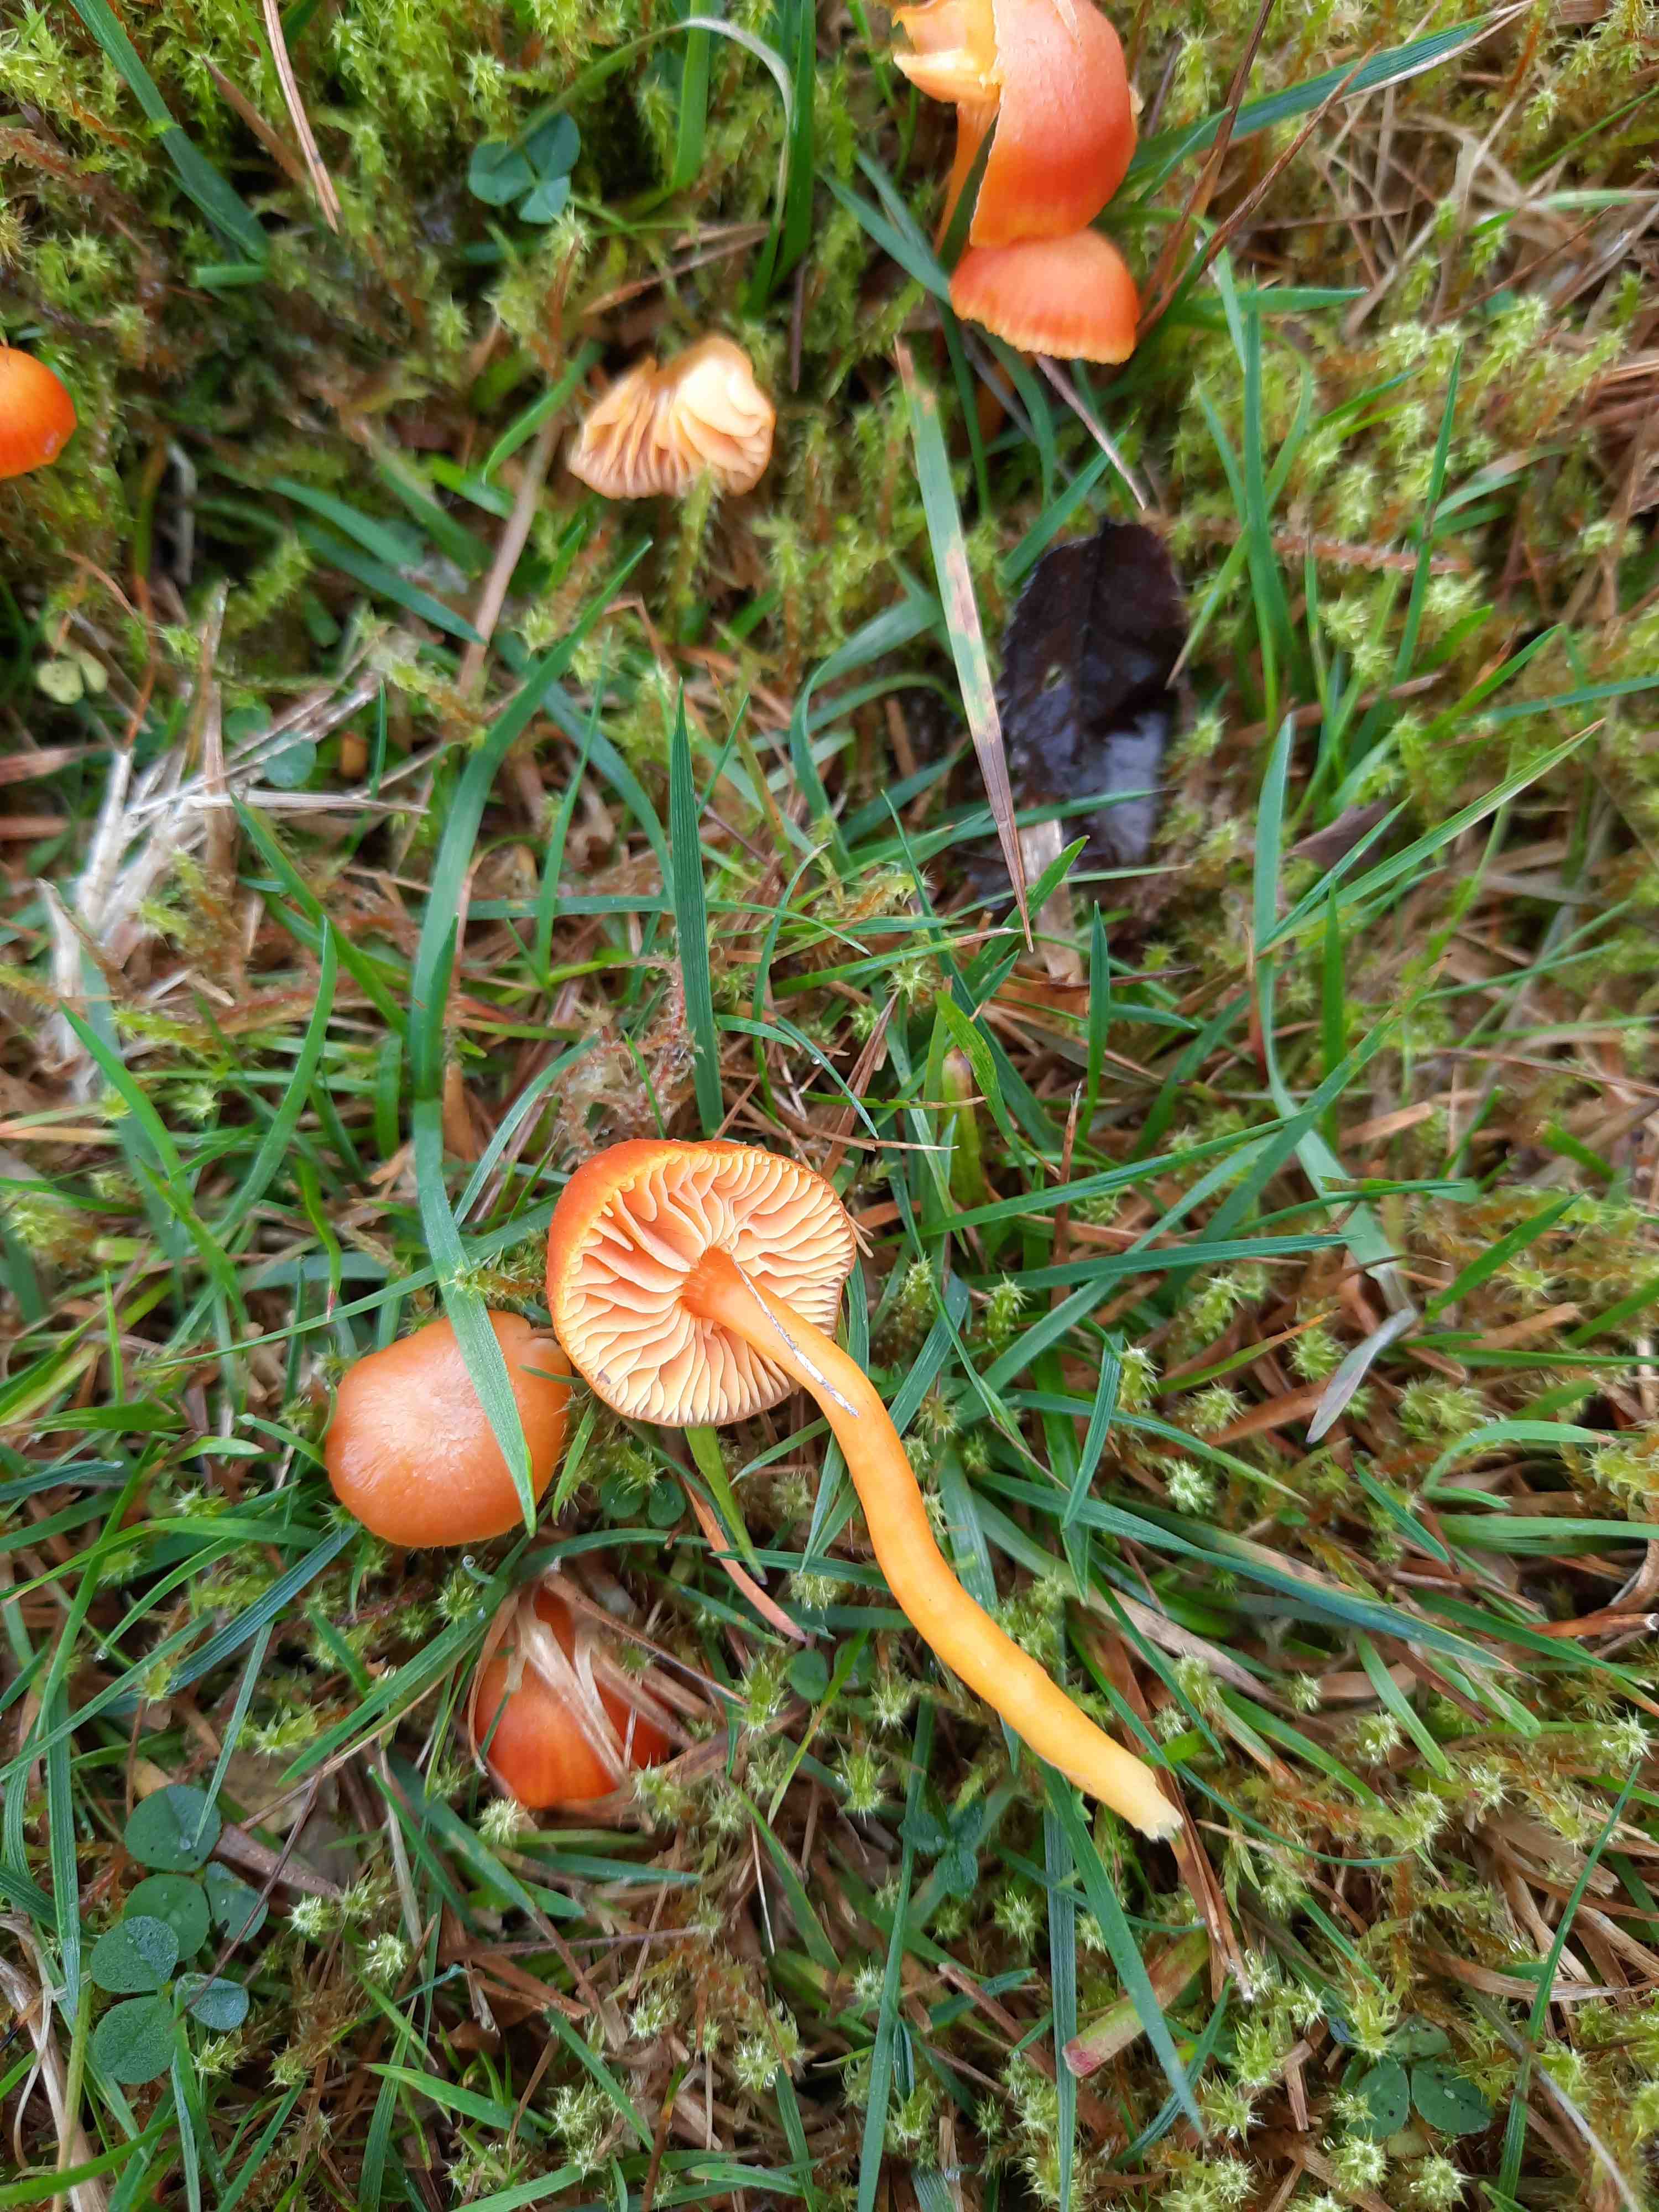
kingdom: Fungi
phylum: Basidiomycota
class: Agaricomycetes
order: Agaricales
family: Hygrophoraceae
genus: Hygrocybe
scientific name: Hygrocybe miniata
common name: mønje-vokshat
